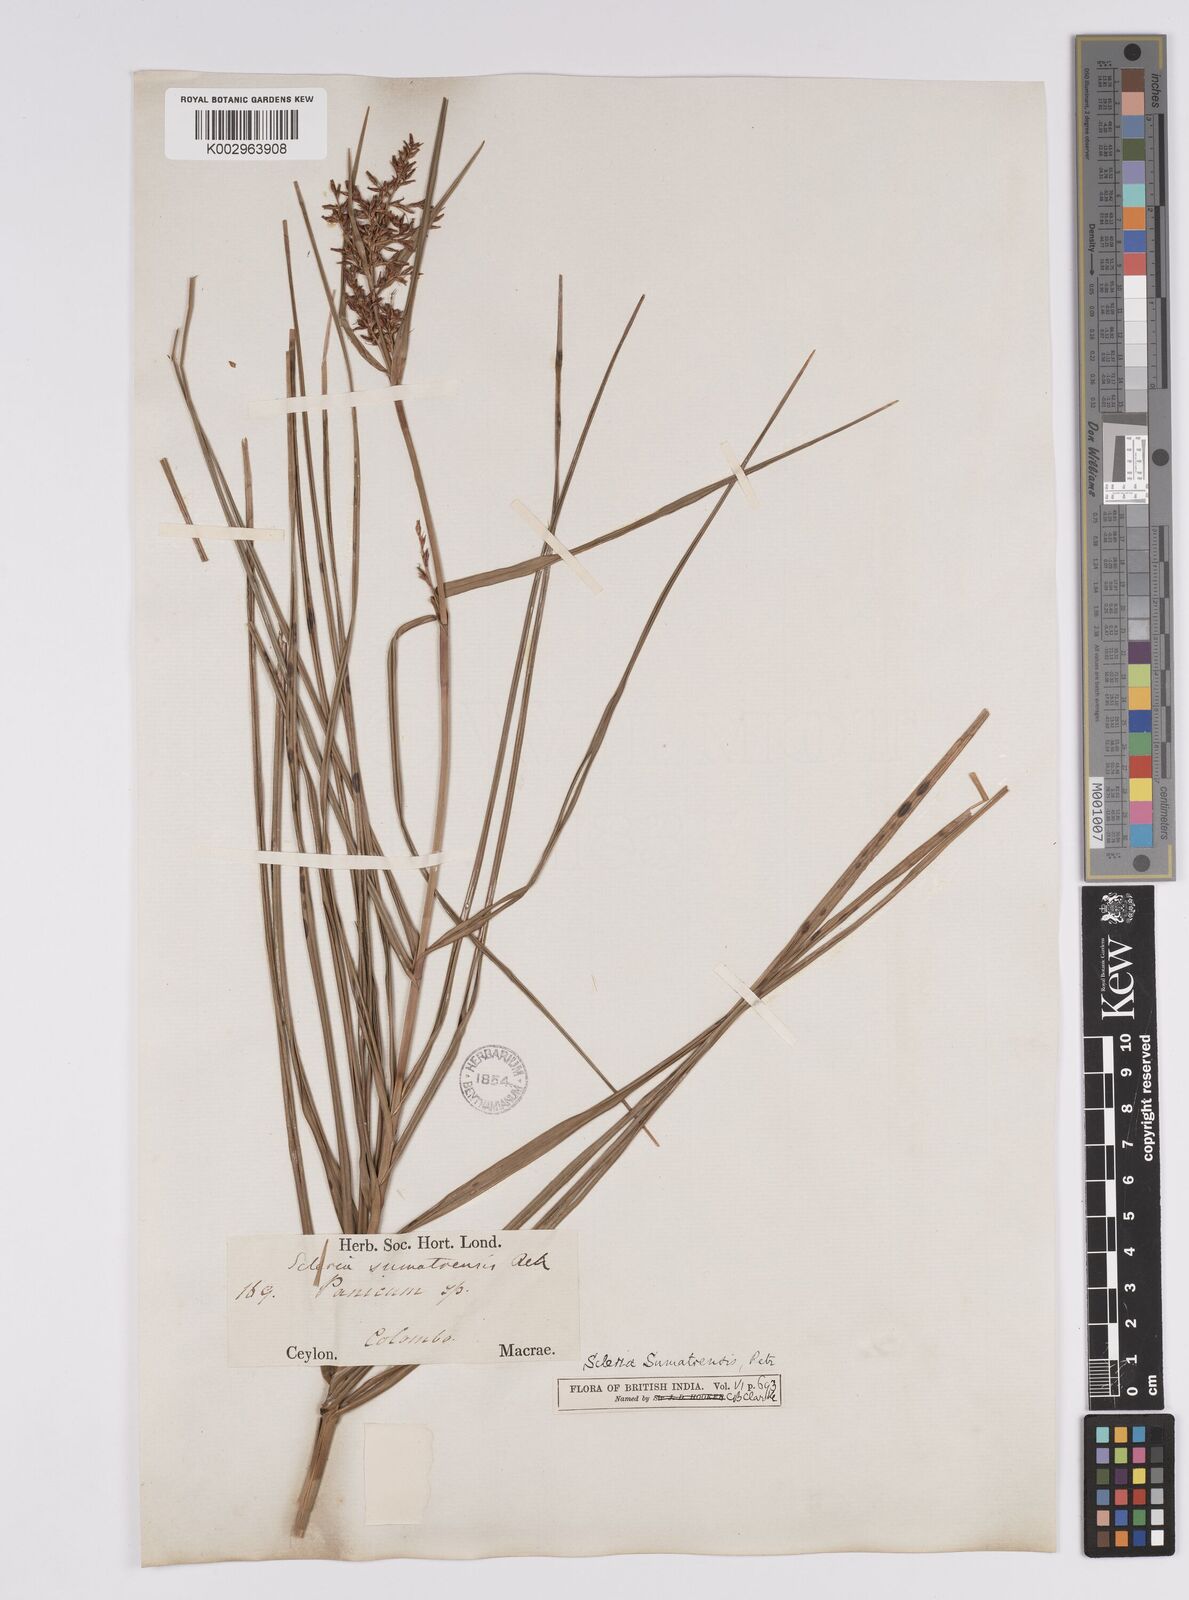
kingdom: Plantae
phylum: Tracheophyta
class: Liliopsida
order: Poales
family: Cyperaceae
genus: Scleria
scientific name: Scleria sumatrensis
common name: Sumatran scleria
